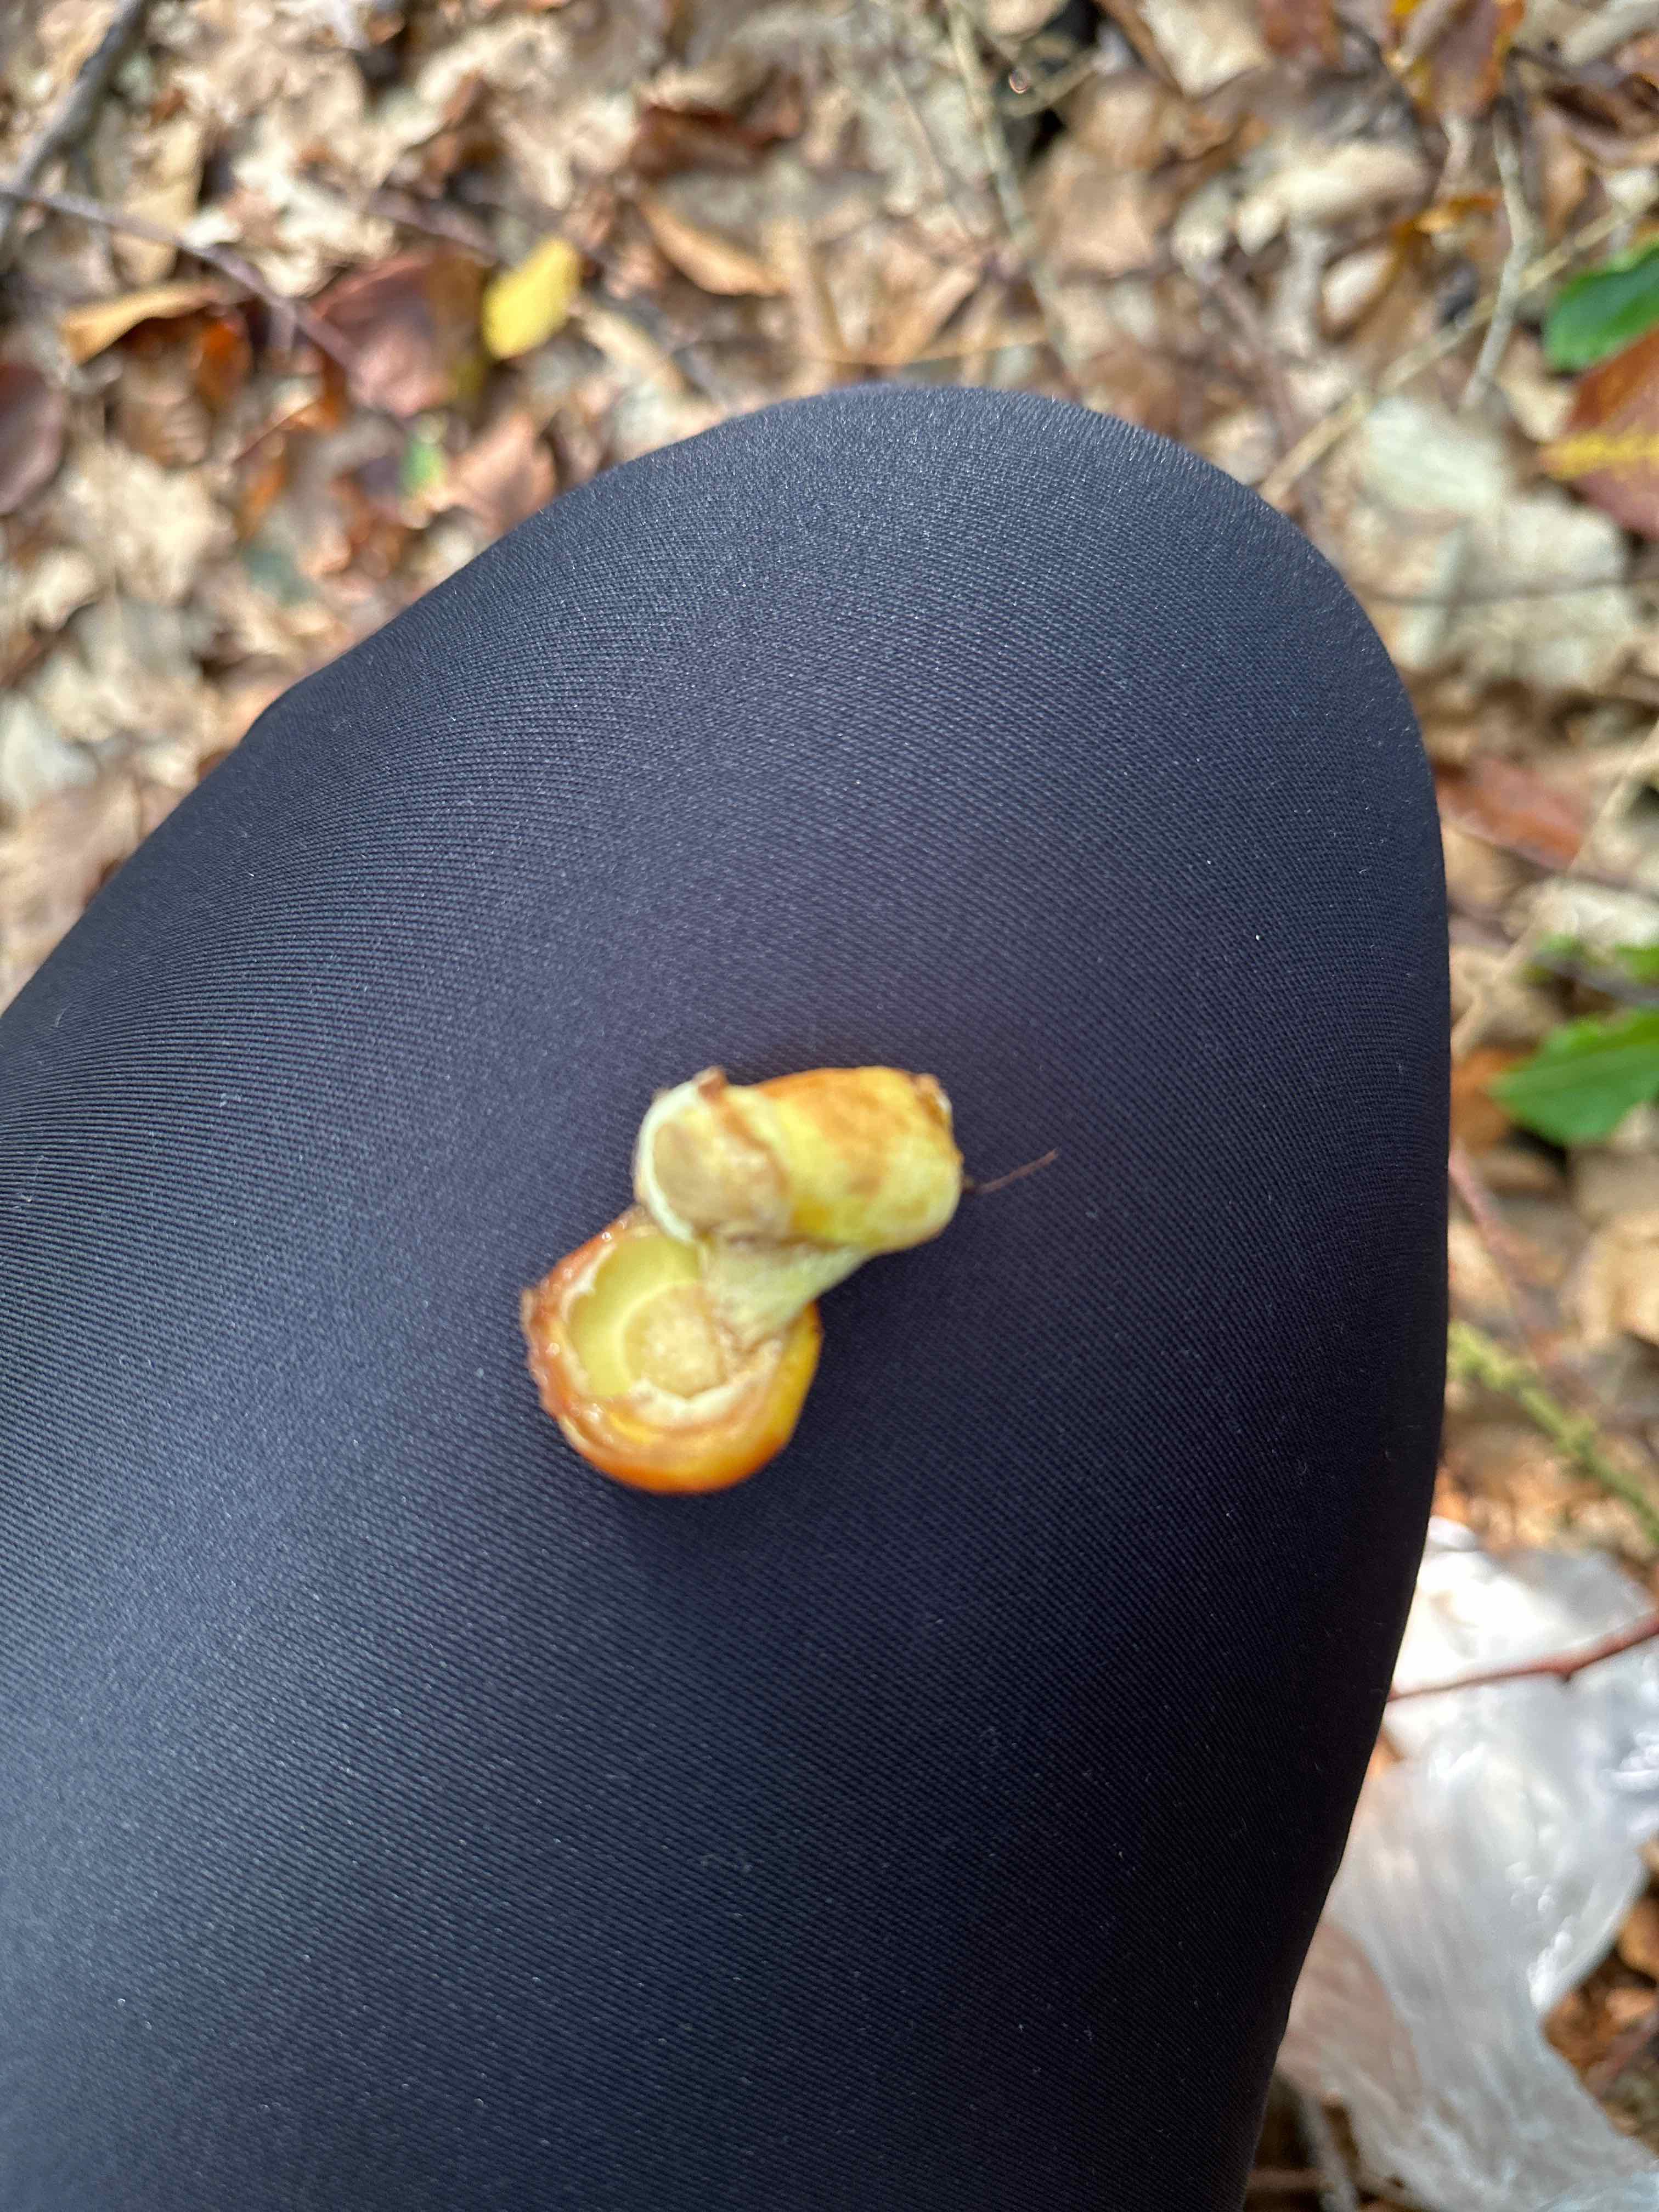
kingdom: Fungi
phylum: Basidiomycota
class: Agaricomycetes
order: Boletales
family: Suillaceae
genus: Suillus
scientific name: Suillus grevillei
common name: lærke-slimrørhat
